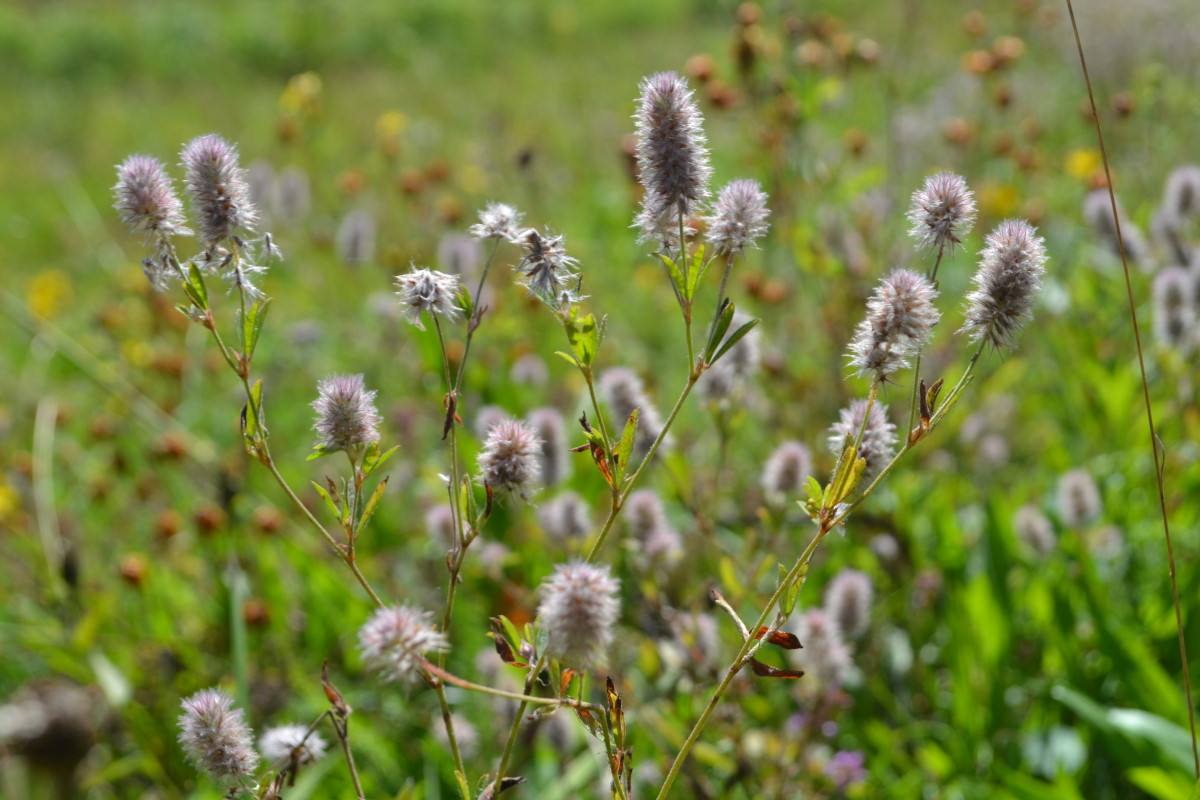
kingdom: Plantae
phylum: Tracheophyta
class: Magnoliopsida
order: Fabales
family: Fabaceae
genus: Trifolium
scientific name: Trifolium arvense
